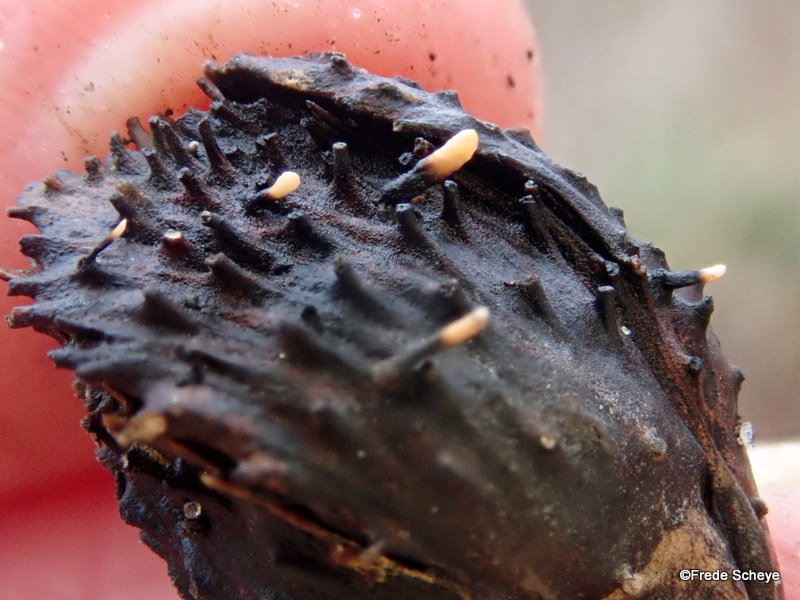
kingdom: Fungi
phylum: Ascomycota
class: Sordariomycetes
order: Xylariales
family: Xylariaceae
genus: Xylaria
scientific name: Xylaria carpophila
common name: bogskål-stødsvamp
